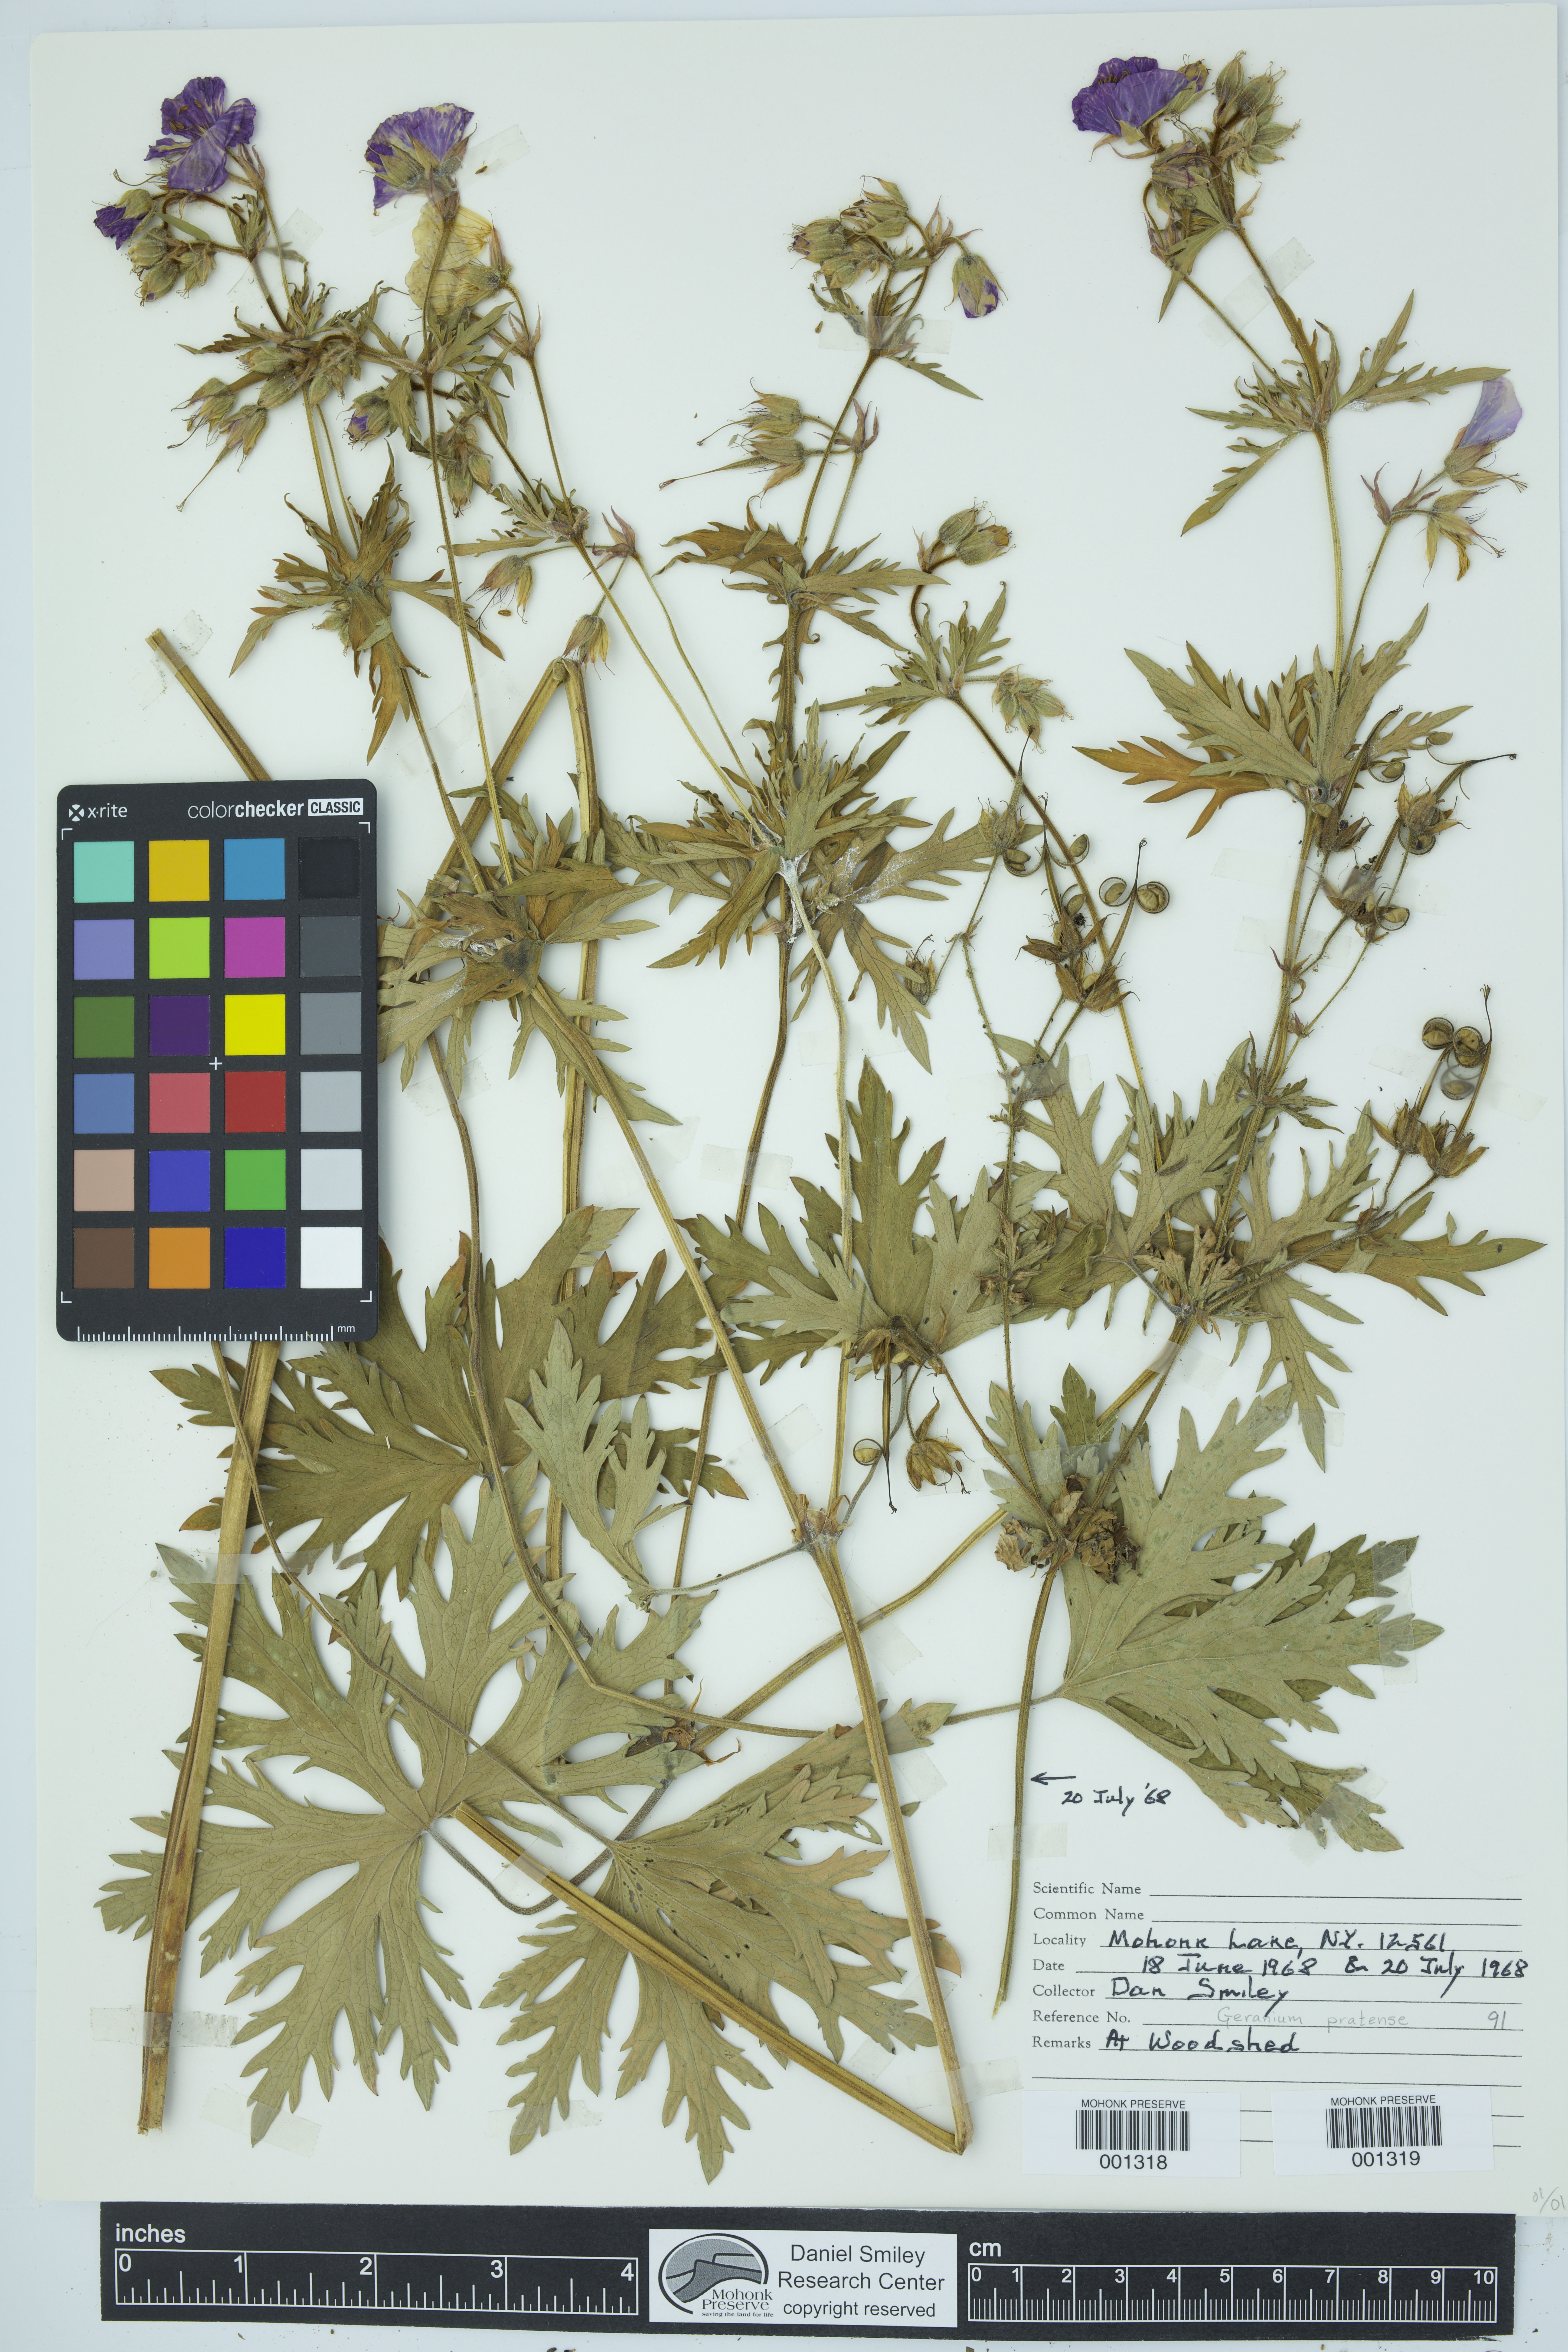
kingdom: Plantae
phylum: Tracheophyta
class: Magnoliopsida
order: Geraniales
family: Geraniaceae
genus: Geranium
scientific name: Geranium pratense
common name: Meadow crane's-bill
